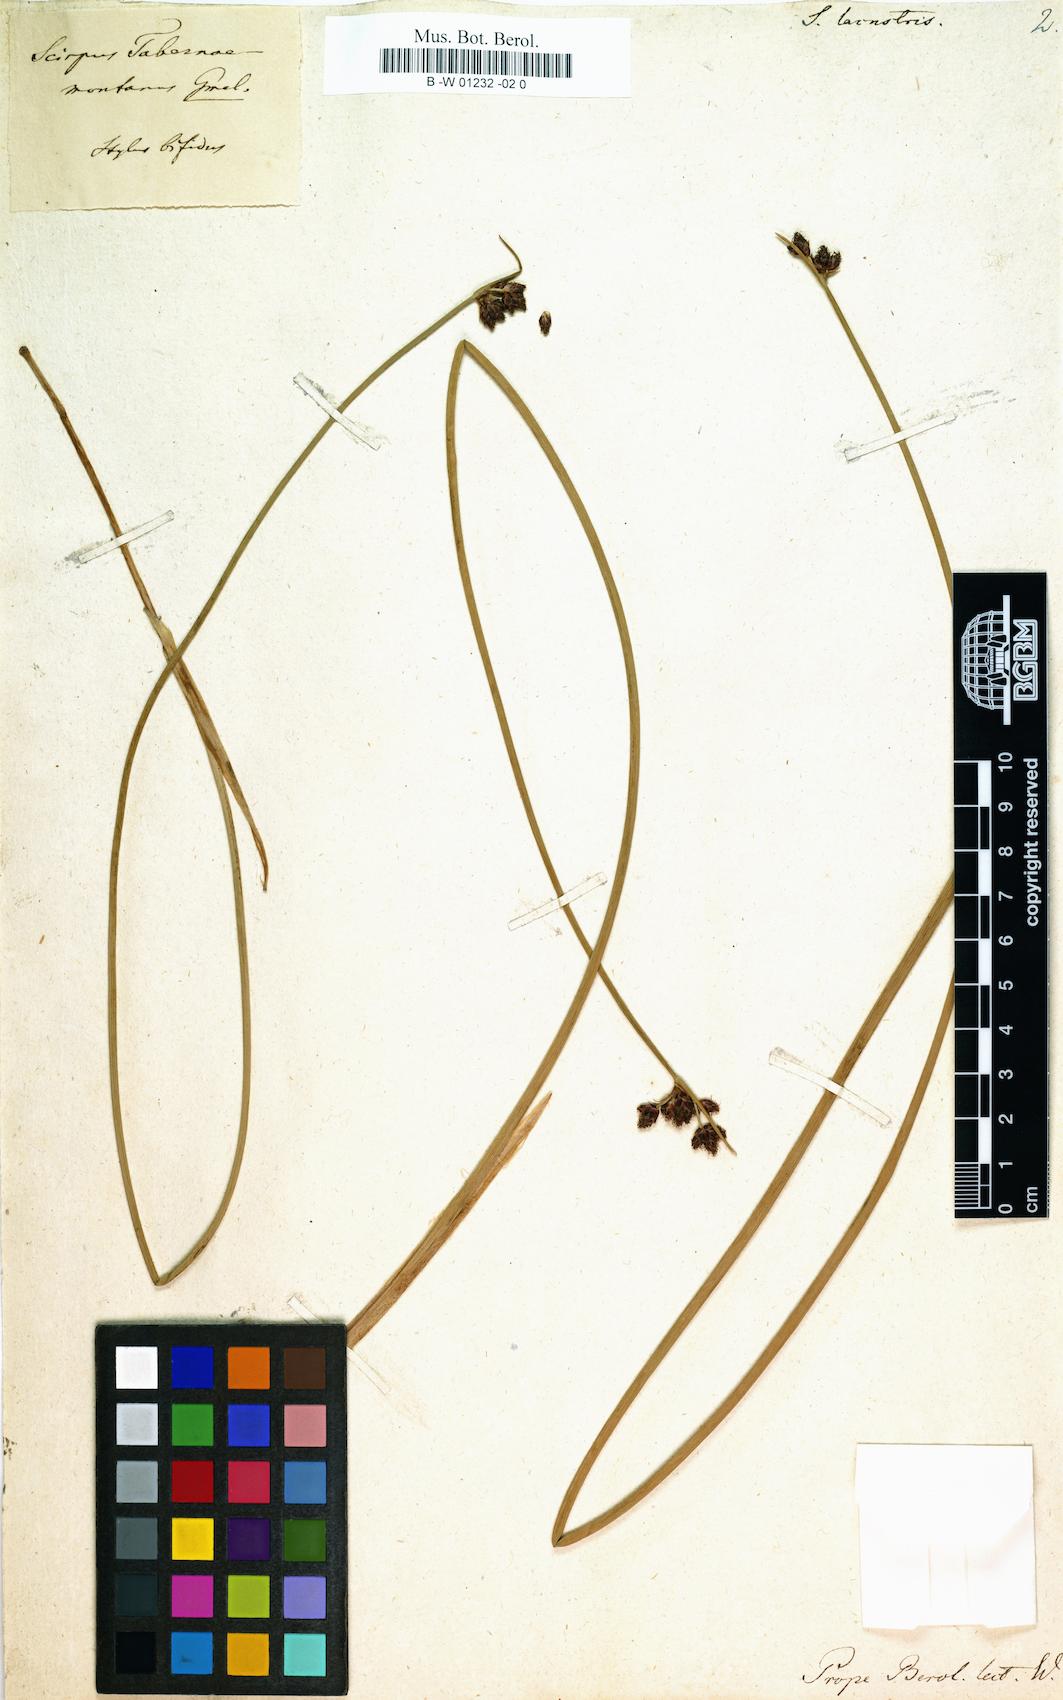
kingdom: Plantae
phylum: Tracheophyta
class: Liliopsida
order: Poales
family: Cyperaceae
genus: Schoenoplectus
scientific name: Schoenoplectus lacustris
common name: Common club-rush
